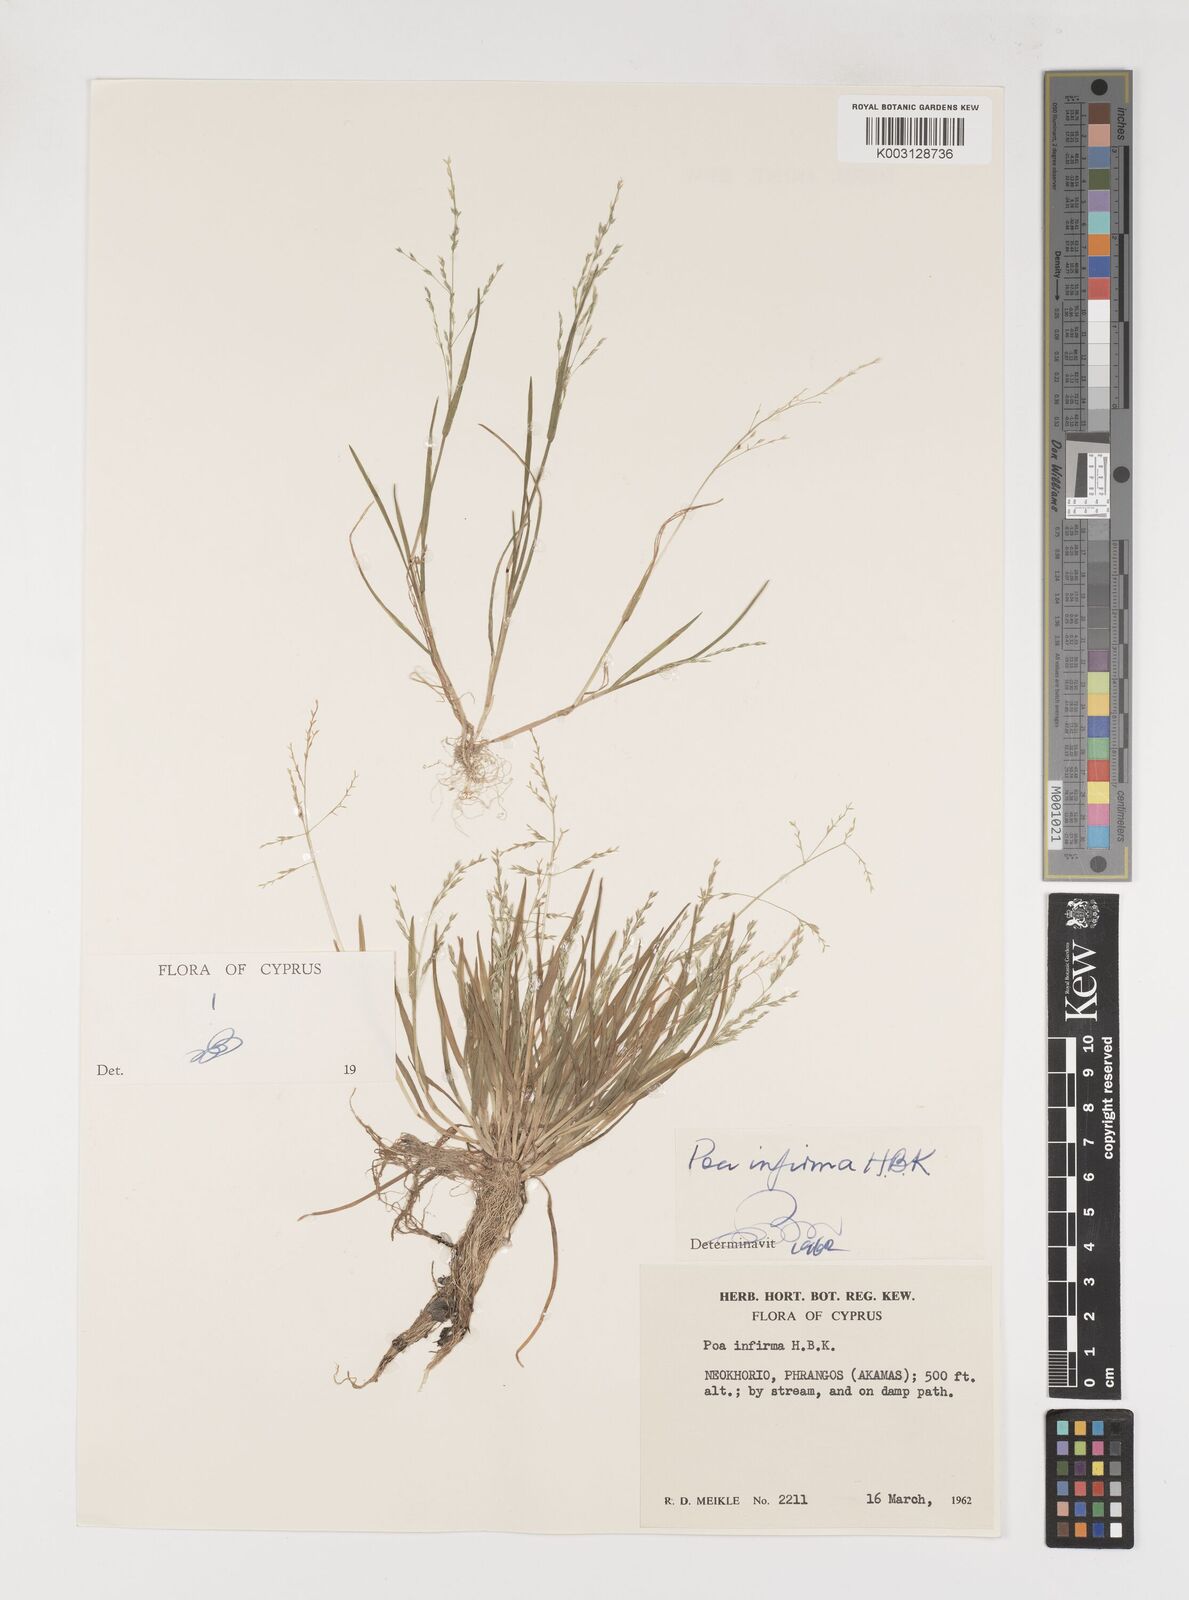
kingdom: Plantae
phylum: Tracheophyta
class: Liliopsida
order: Poales
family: Poaceae
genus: Poa
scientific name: Poa infirma
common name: Weak bluegrass
